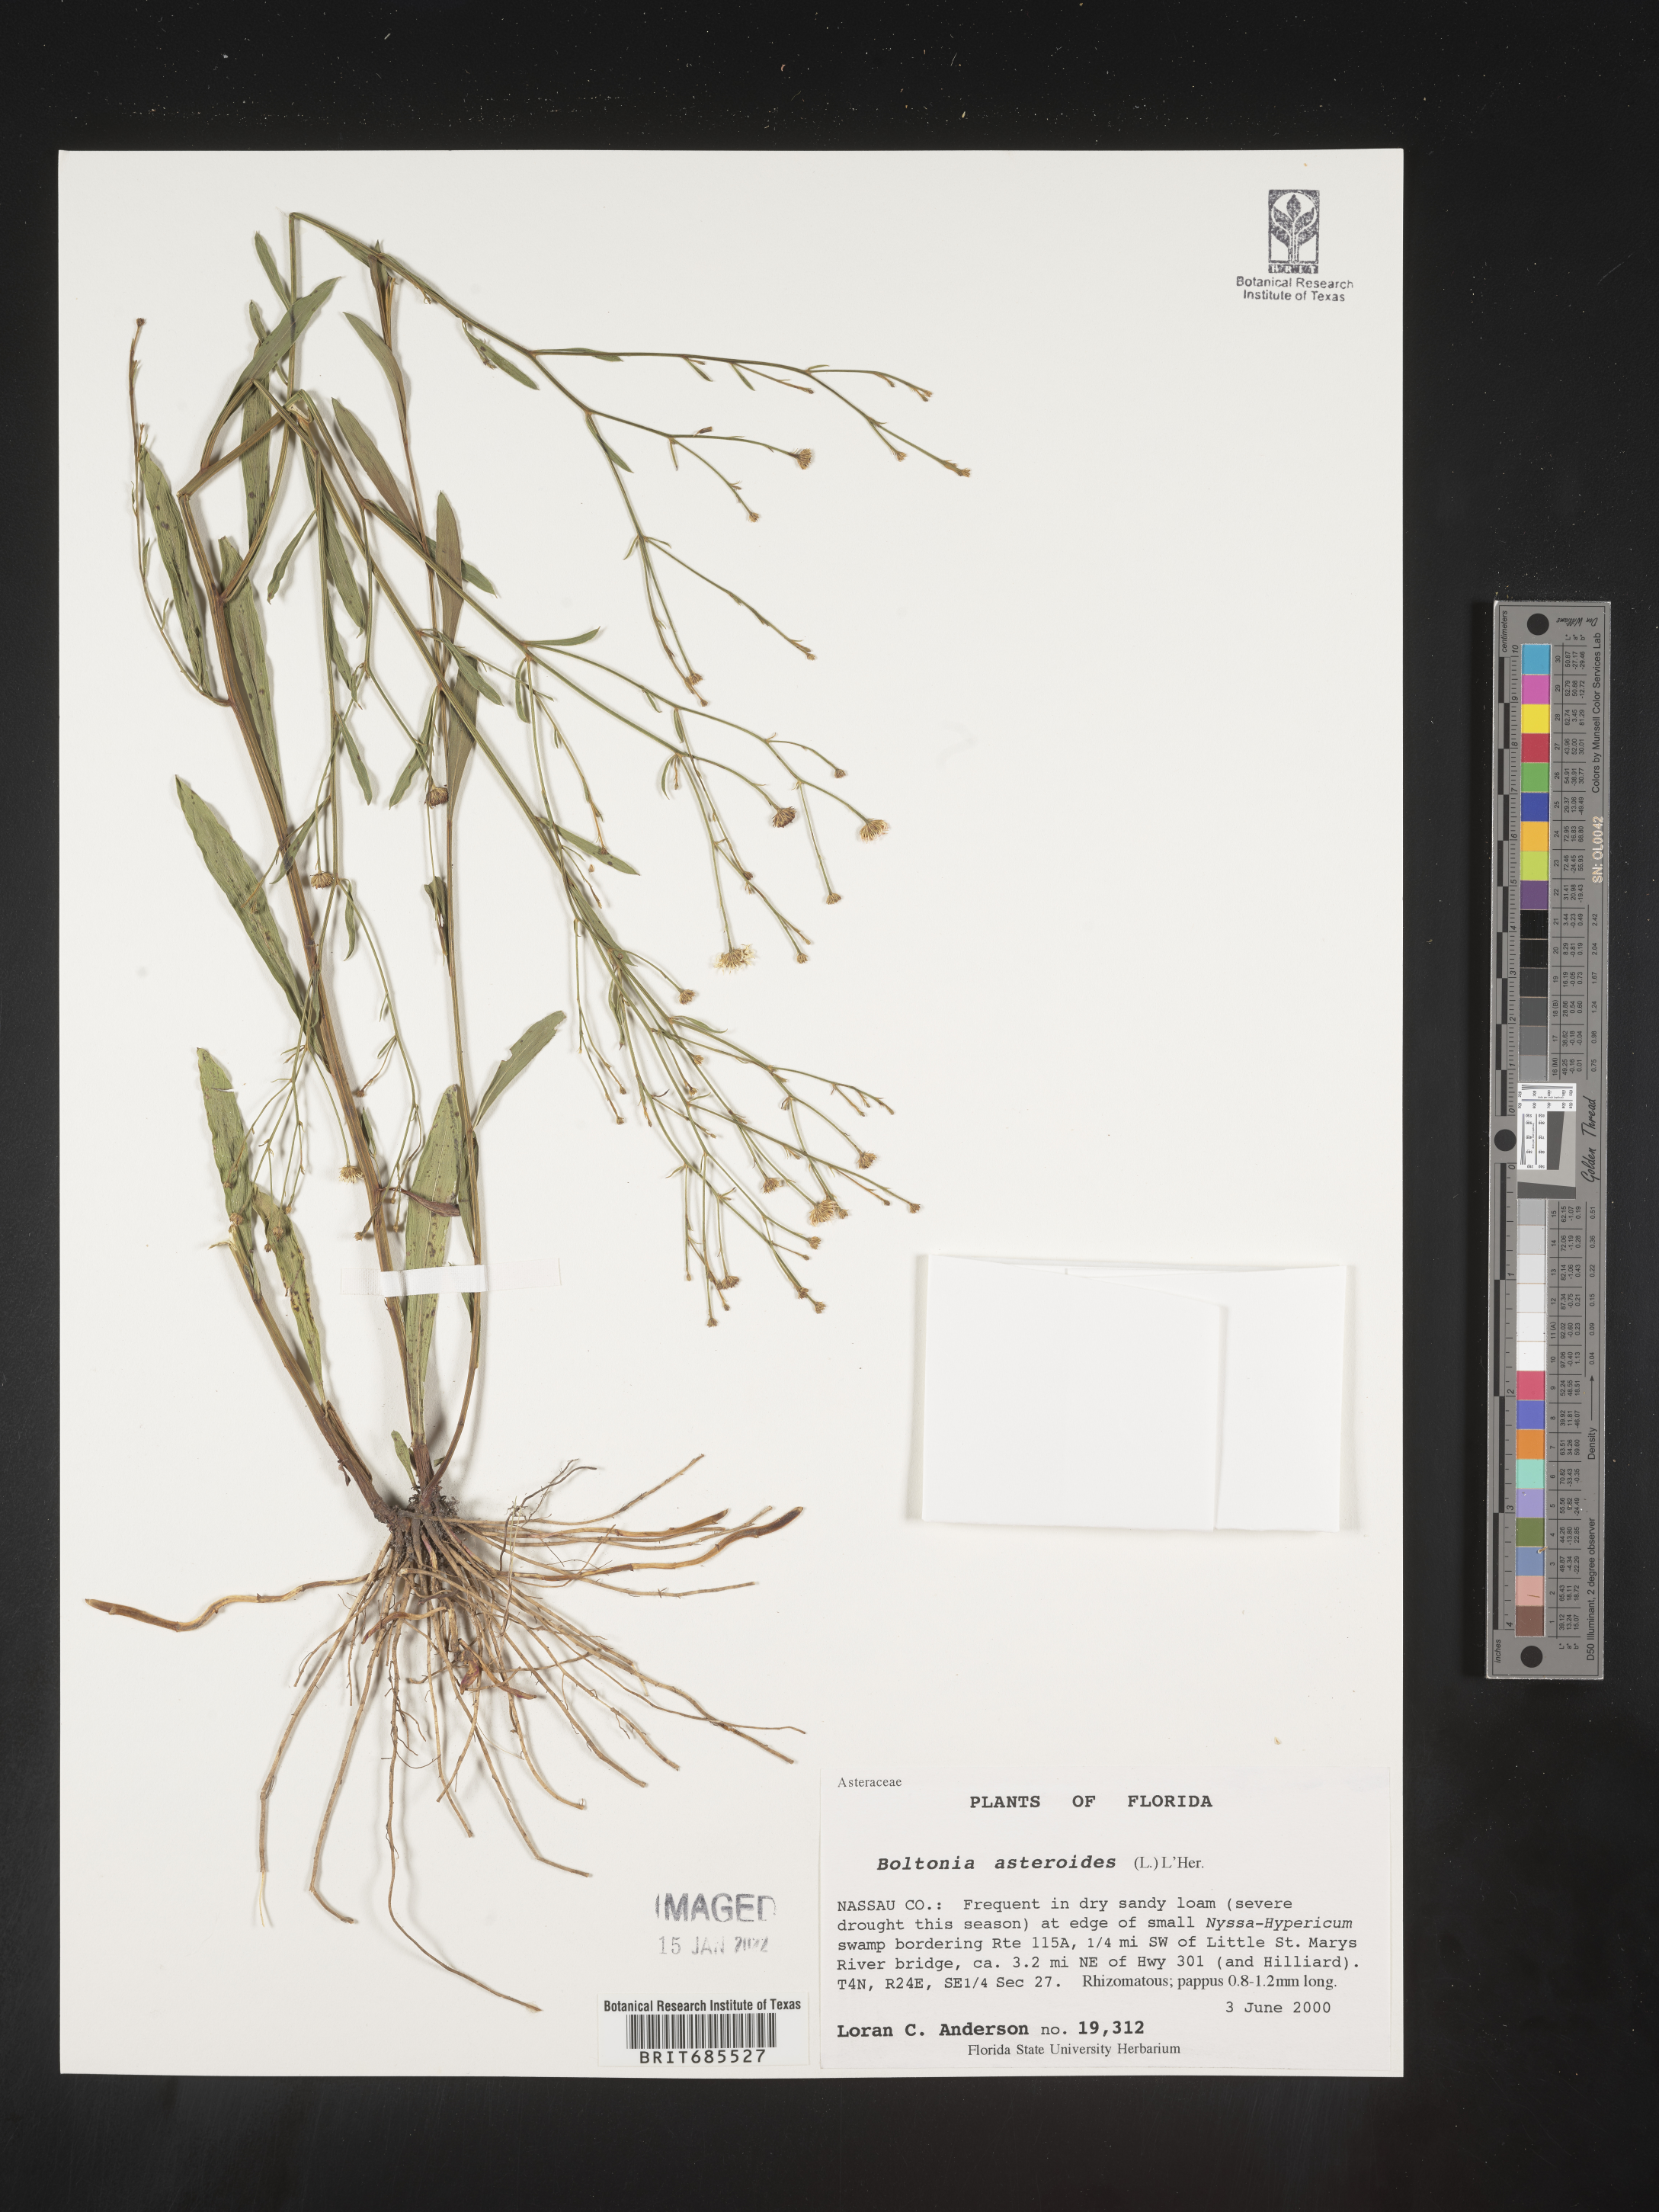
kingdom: Plantae
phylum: Tracheophyta
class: Magnoliopsida
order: Asterales
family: Asteraceae
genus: Boltonia
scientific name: Boltonia asteroides
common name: False chamomile
